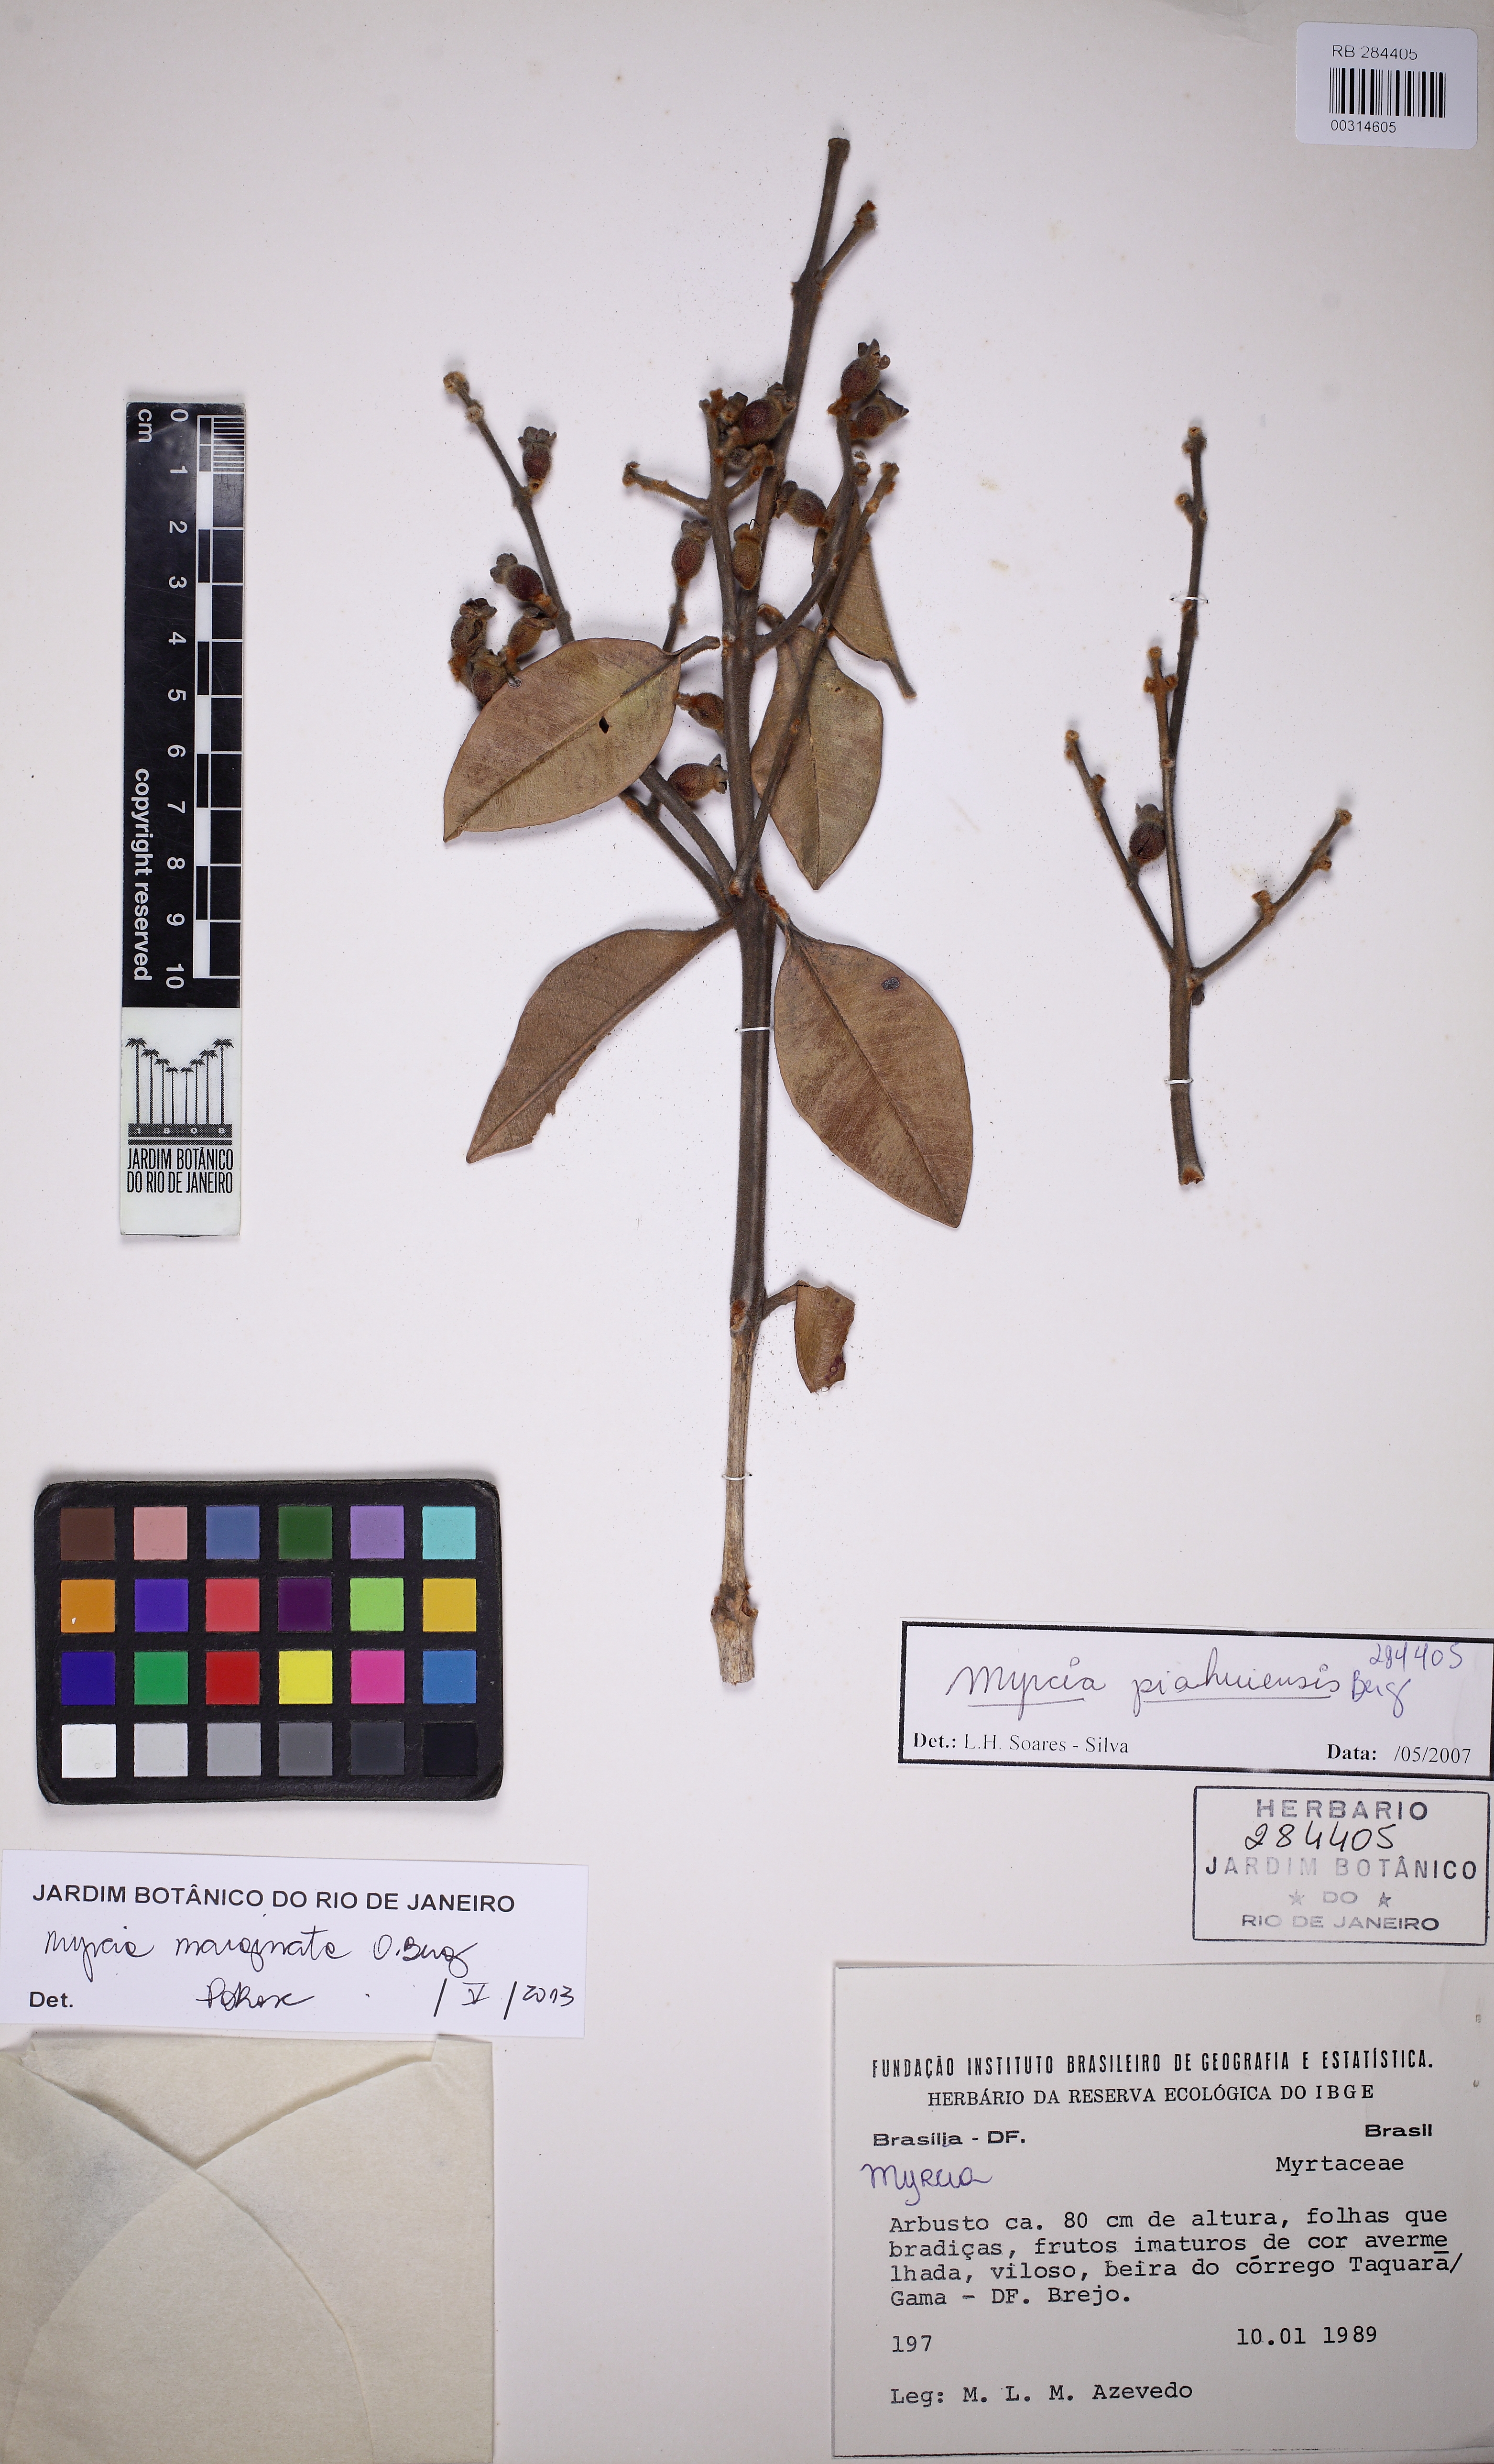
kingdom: Plantae
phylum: Tracheophyta
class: Magnoliopsida
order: Myrtales
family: Myrtaceae
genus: Myrcia
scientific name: Myrcia marginata
